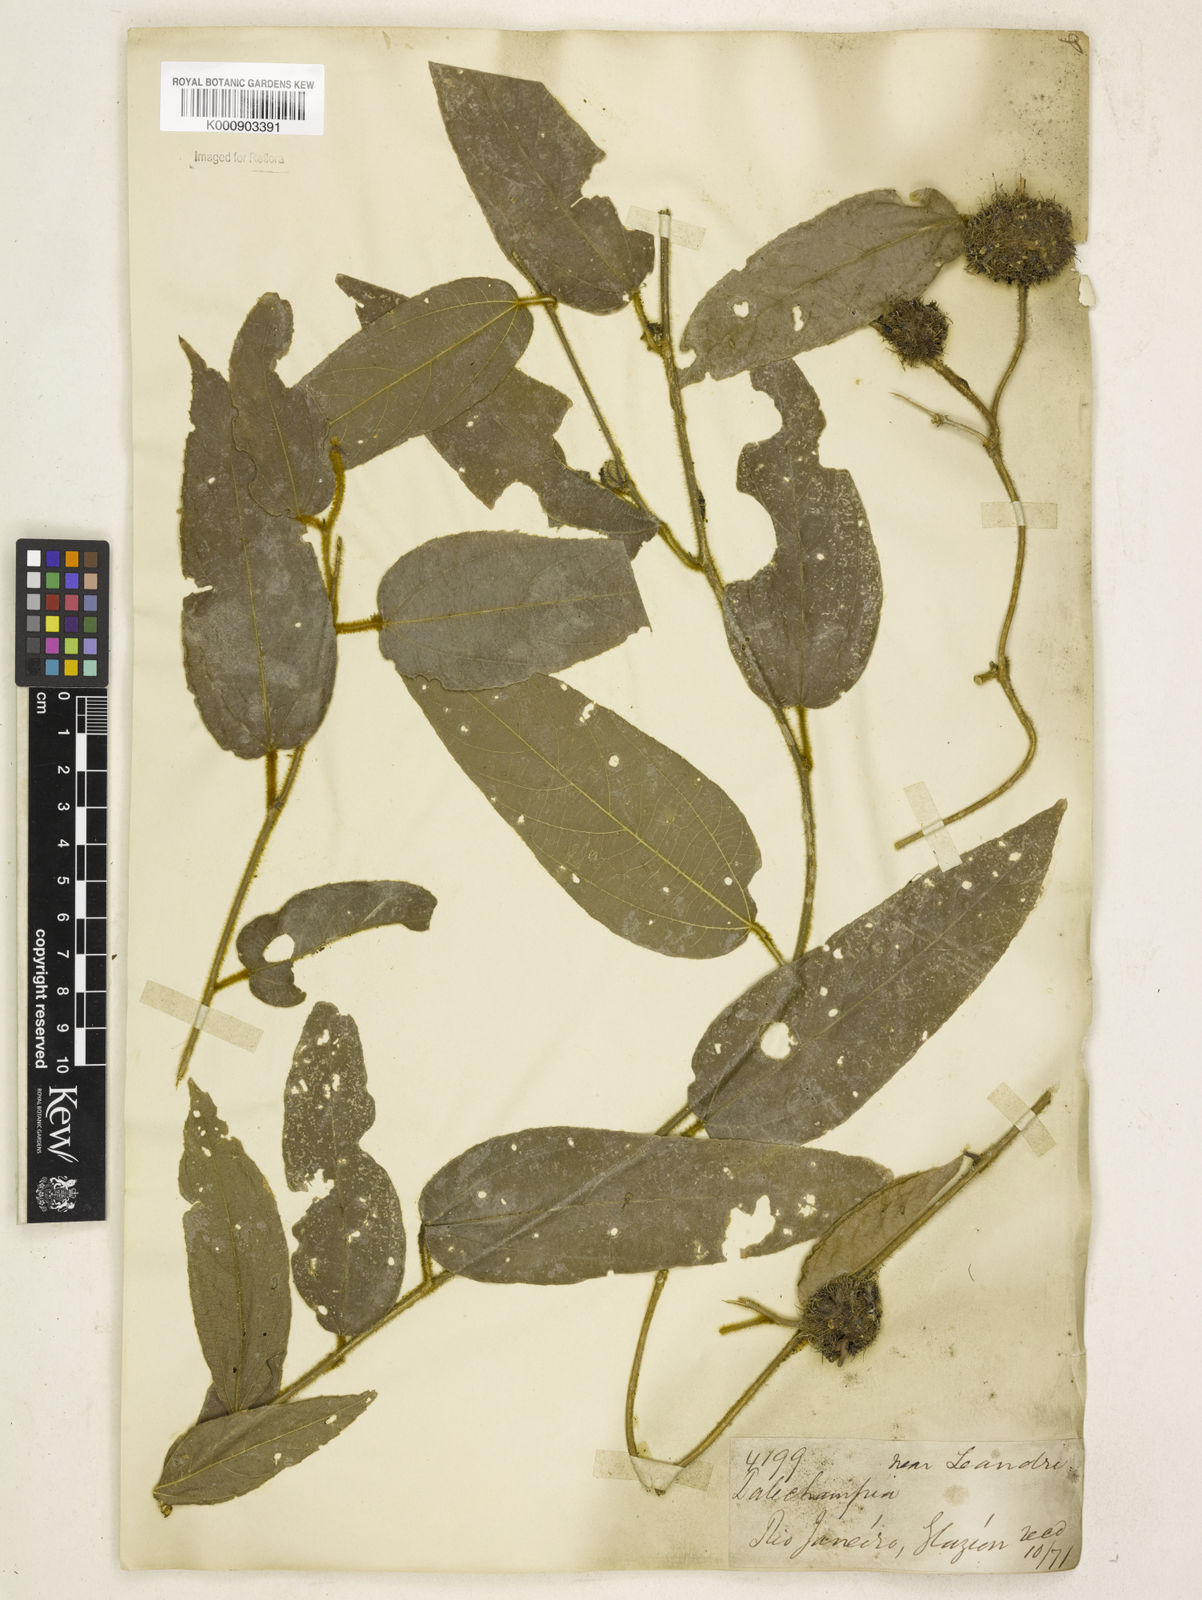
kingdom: Plantae
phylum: Tracheophyta
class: Magnoliopsida
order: Malpighiales
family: Euphorbiaceae
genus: Dalechampia
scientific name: Dalechampia leandrii
